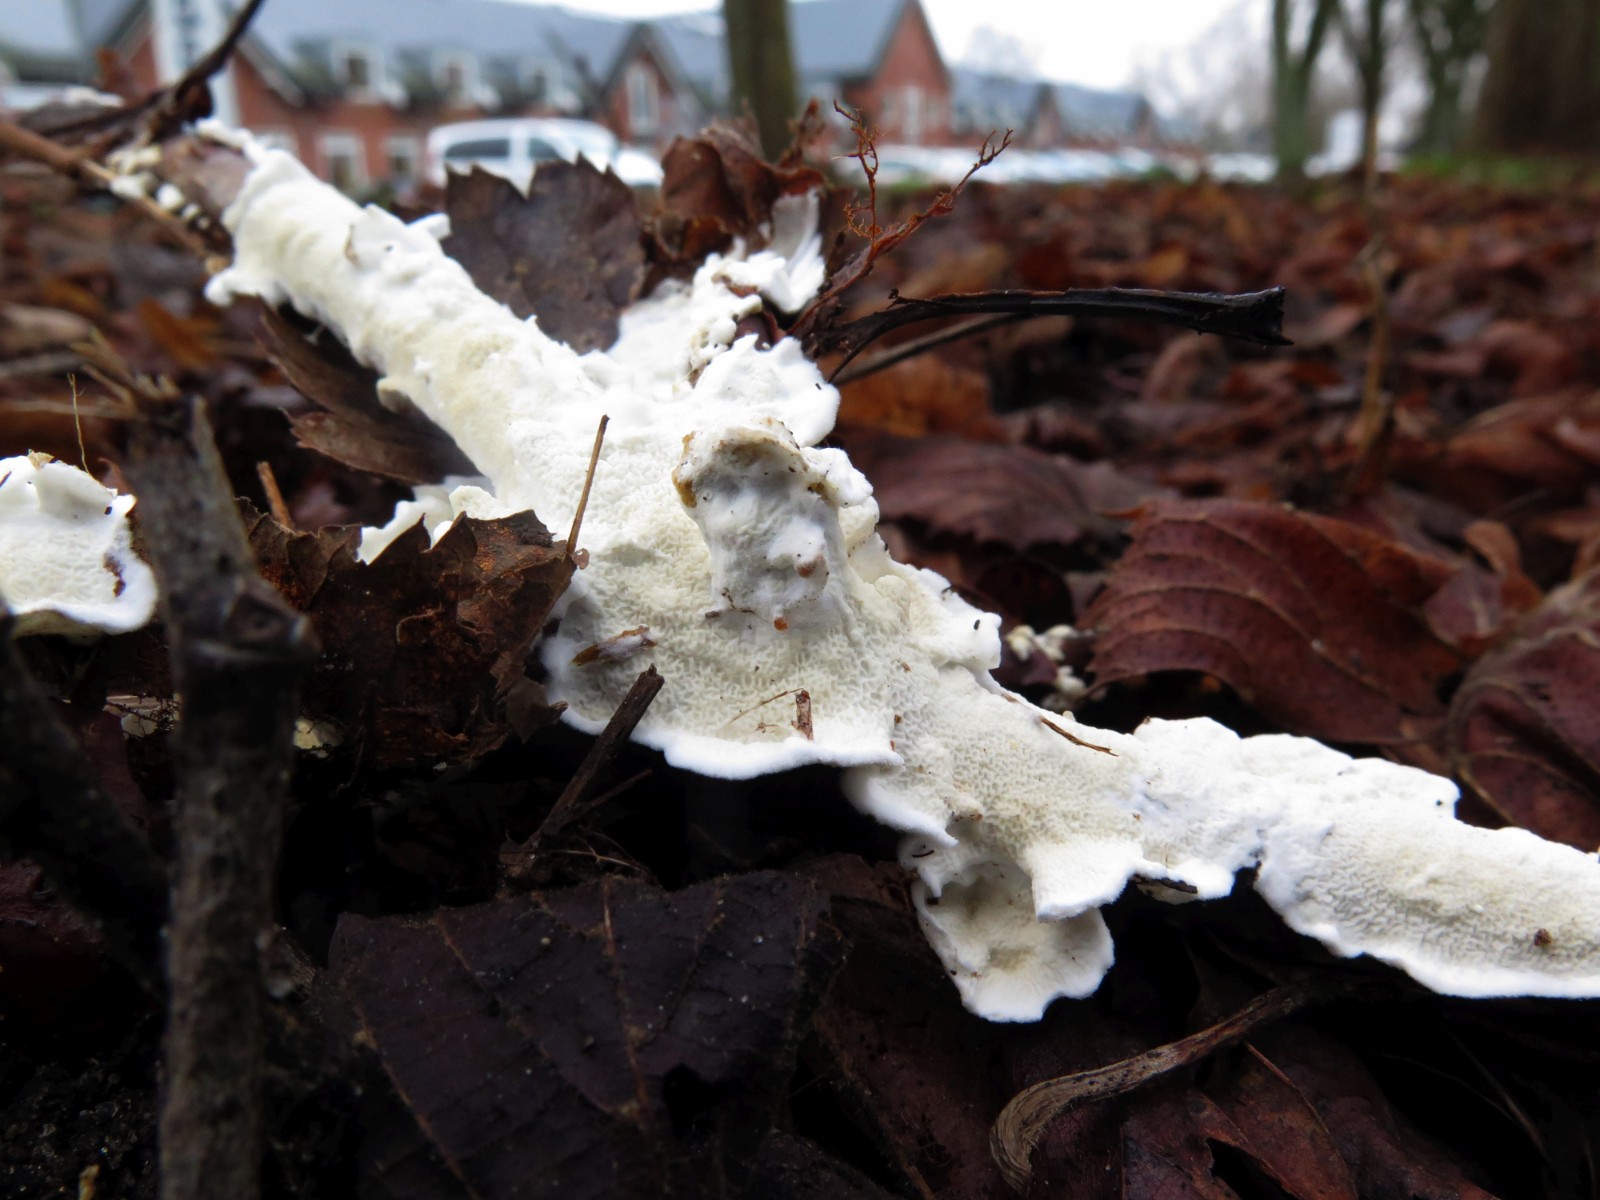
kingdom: Fungi
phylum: Basidiomycota
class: Agaricomycetes
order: Polyporales
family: Irpicaceae
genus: Byssomerulius
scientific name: Byssomerulius corium
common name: læder-åresvamp
